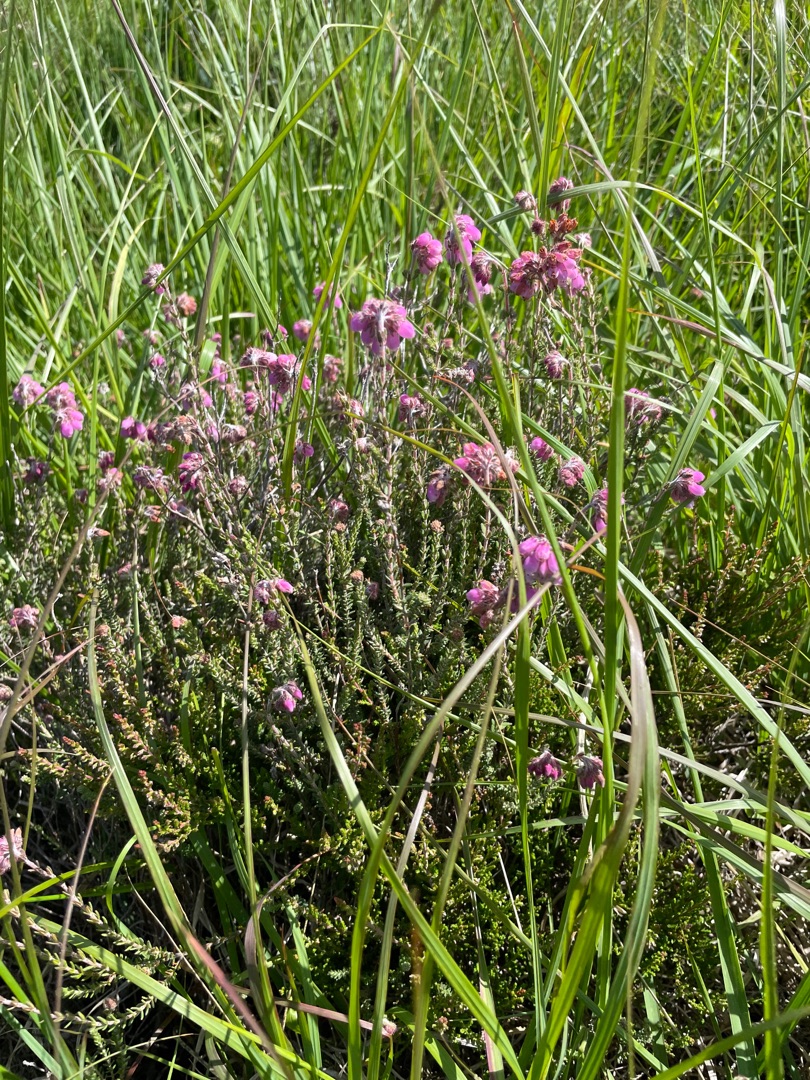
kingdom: Plantae
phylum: Tracheophyta
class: Magnoliopsida
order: Ericales
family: Ericaceae
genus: Erica
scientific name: Erica tetralix
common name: Klokkelyng
